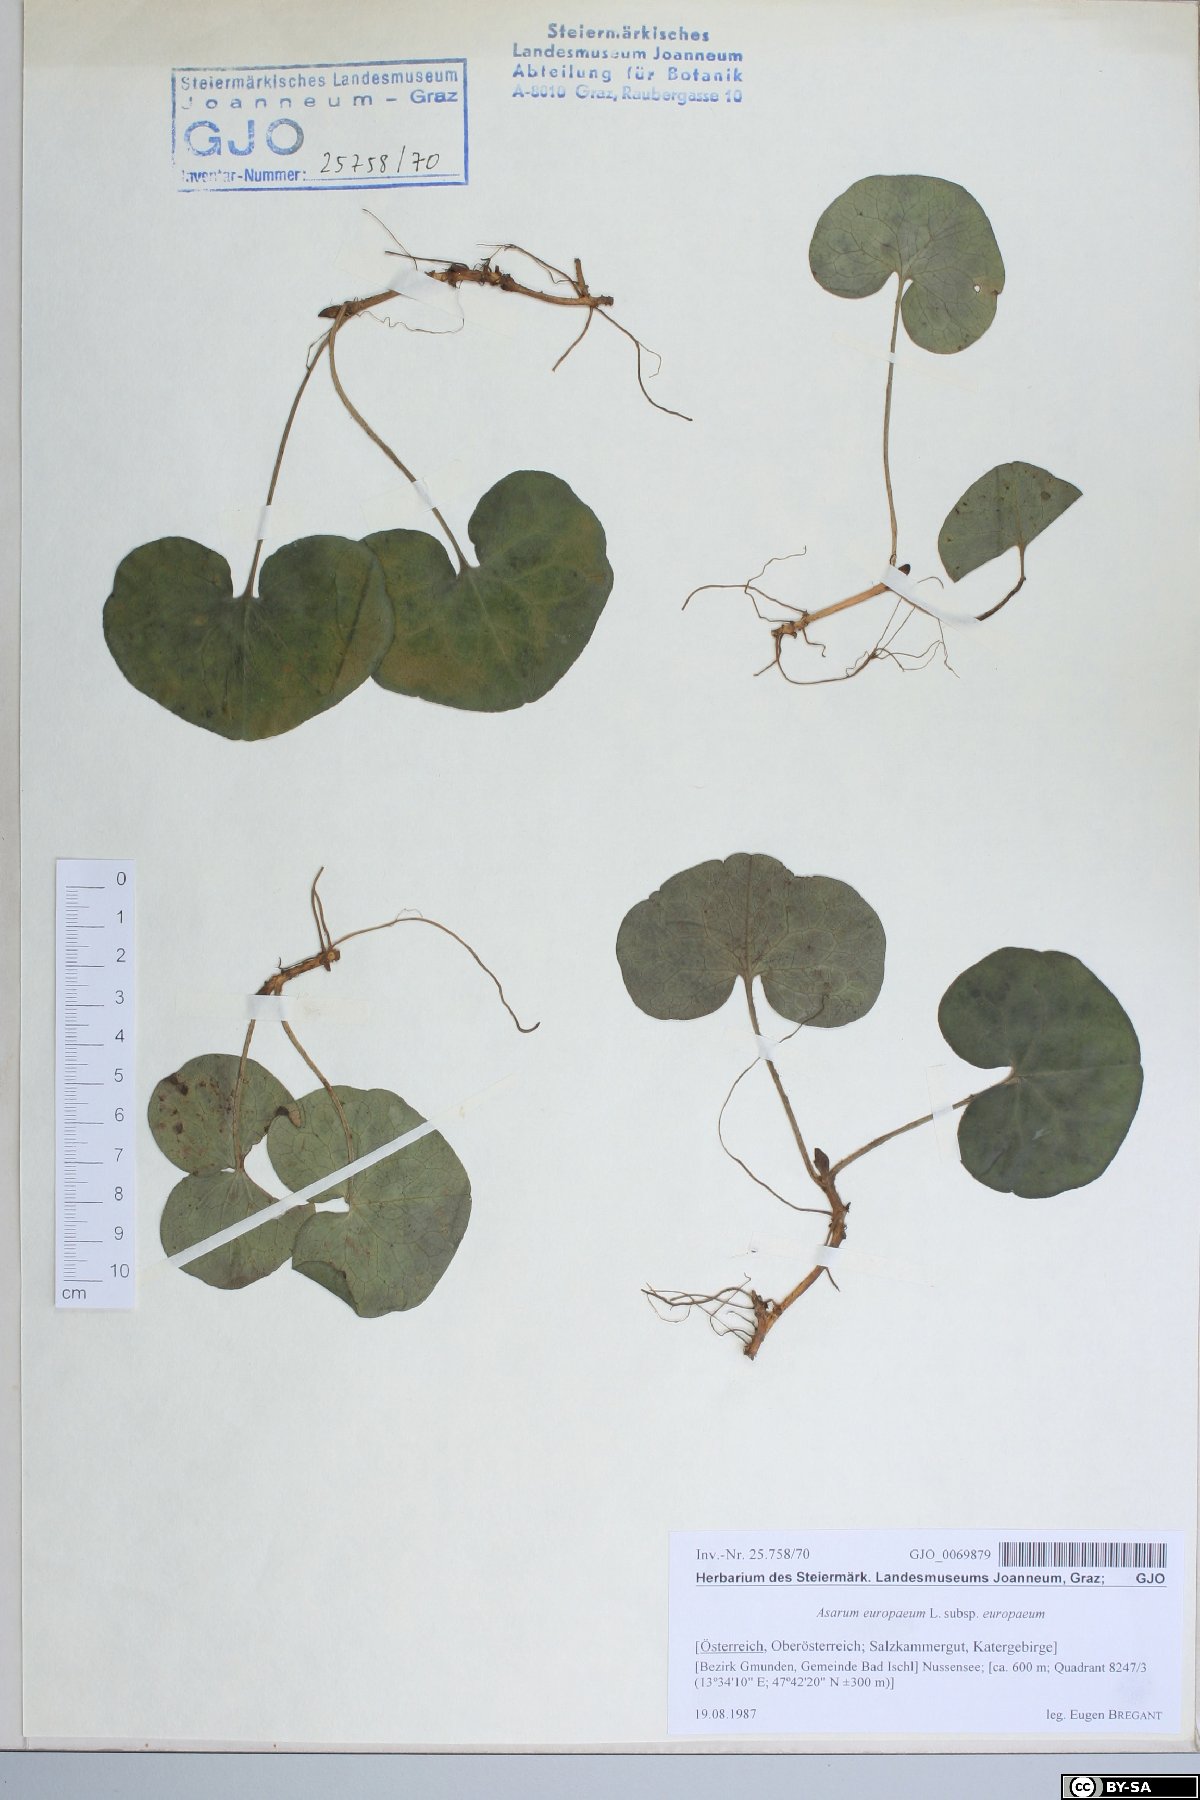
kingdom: Plantae
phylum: Tracheophyta
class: Magnoliopsida
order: Piperales
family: Aristolochiaceae
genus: Asarum
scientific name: Asarum europaeum
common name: Asarabacca
